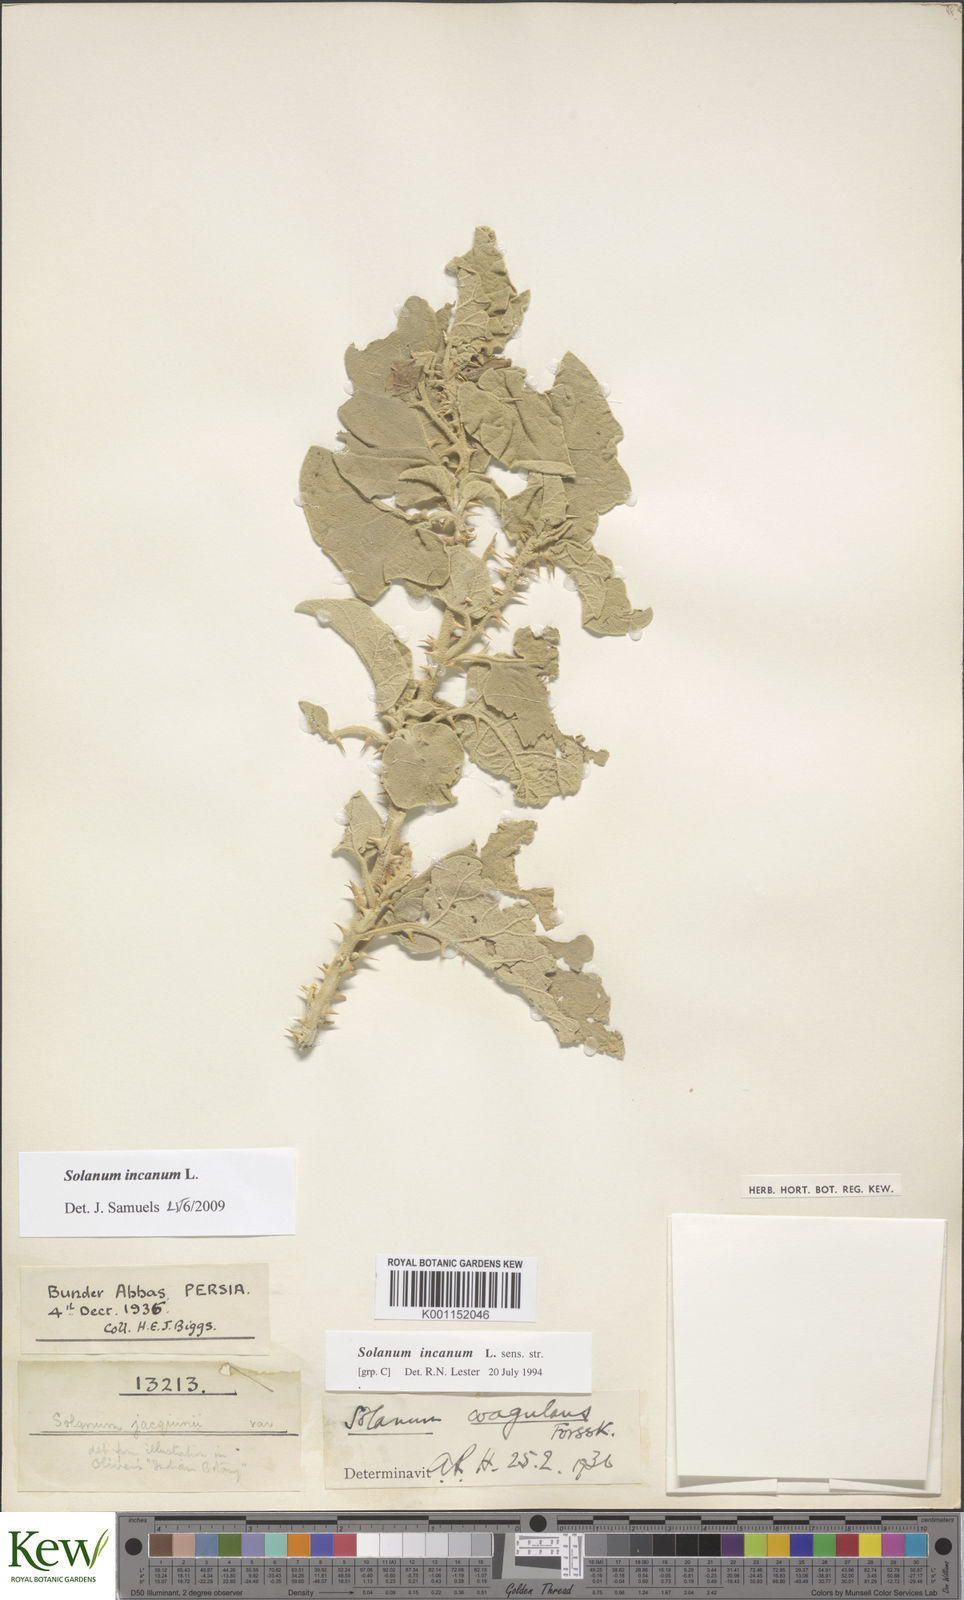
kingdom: Plantae
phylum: Tracheophyta
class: Magnoliopsida
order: Solanales
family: Solanaceae
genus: Solanum
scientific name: Solanum incanum
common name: Bitter apple
